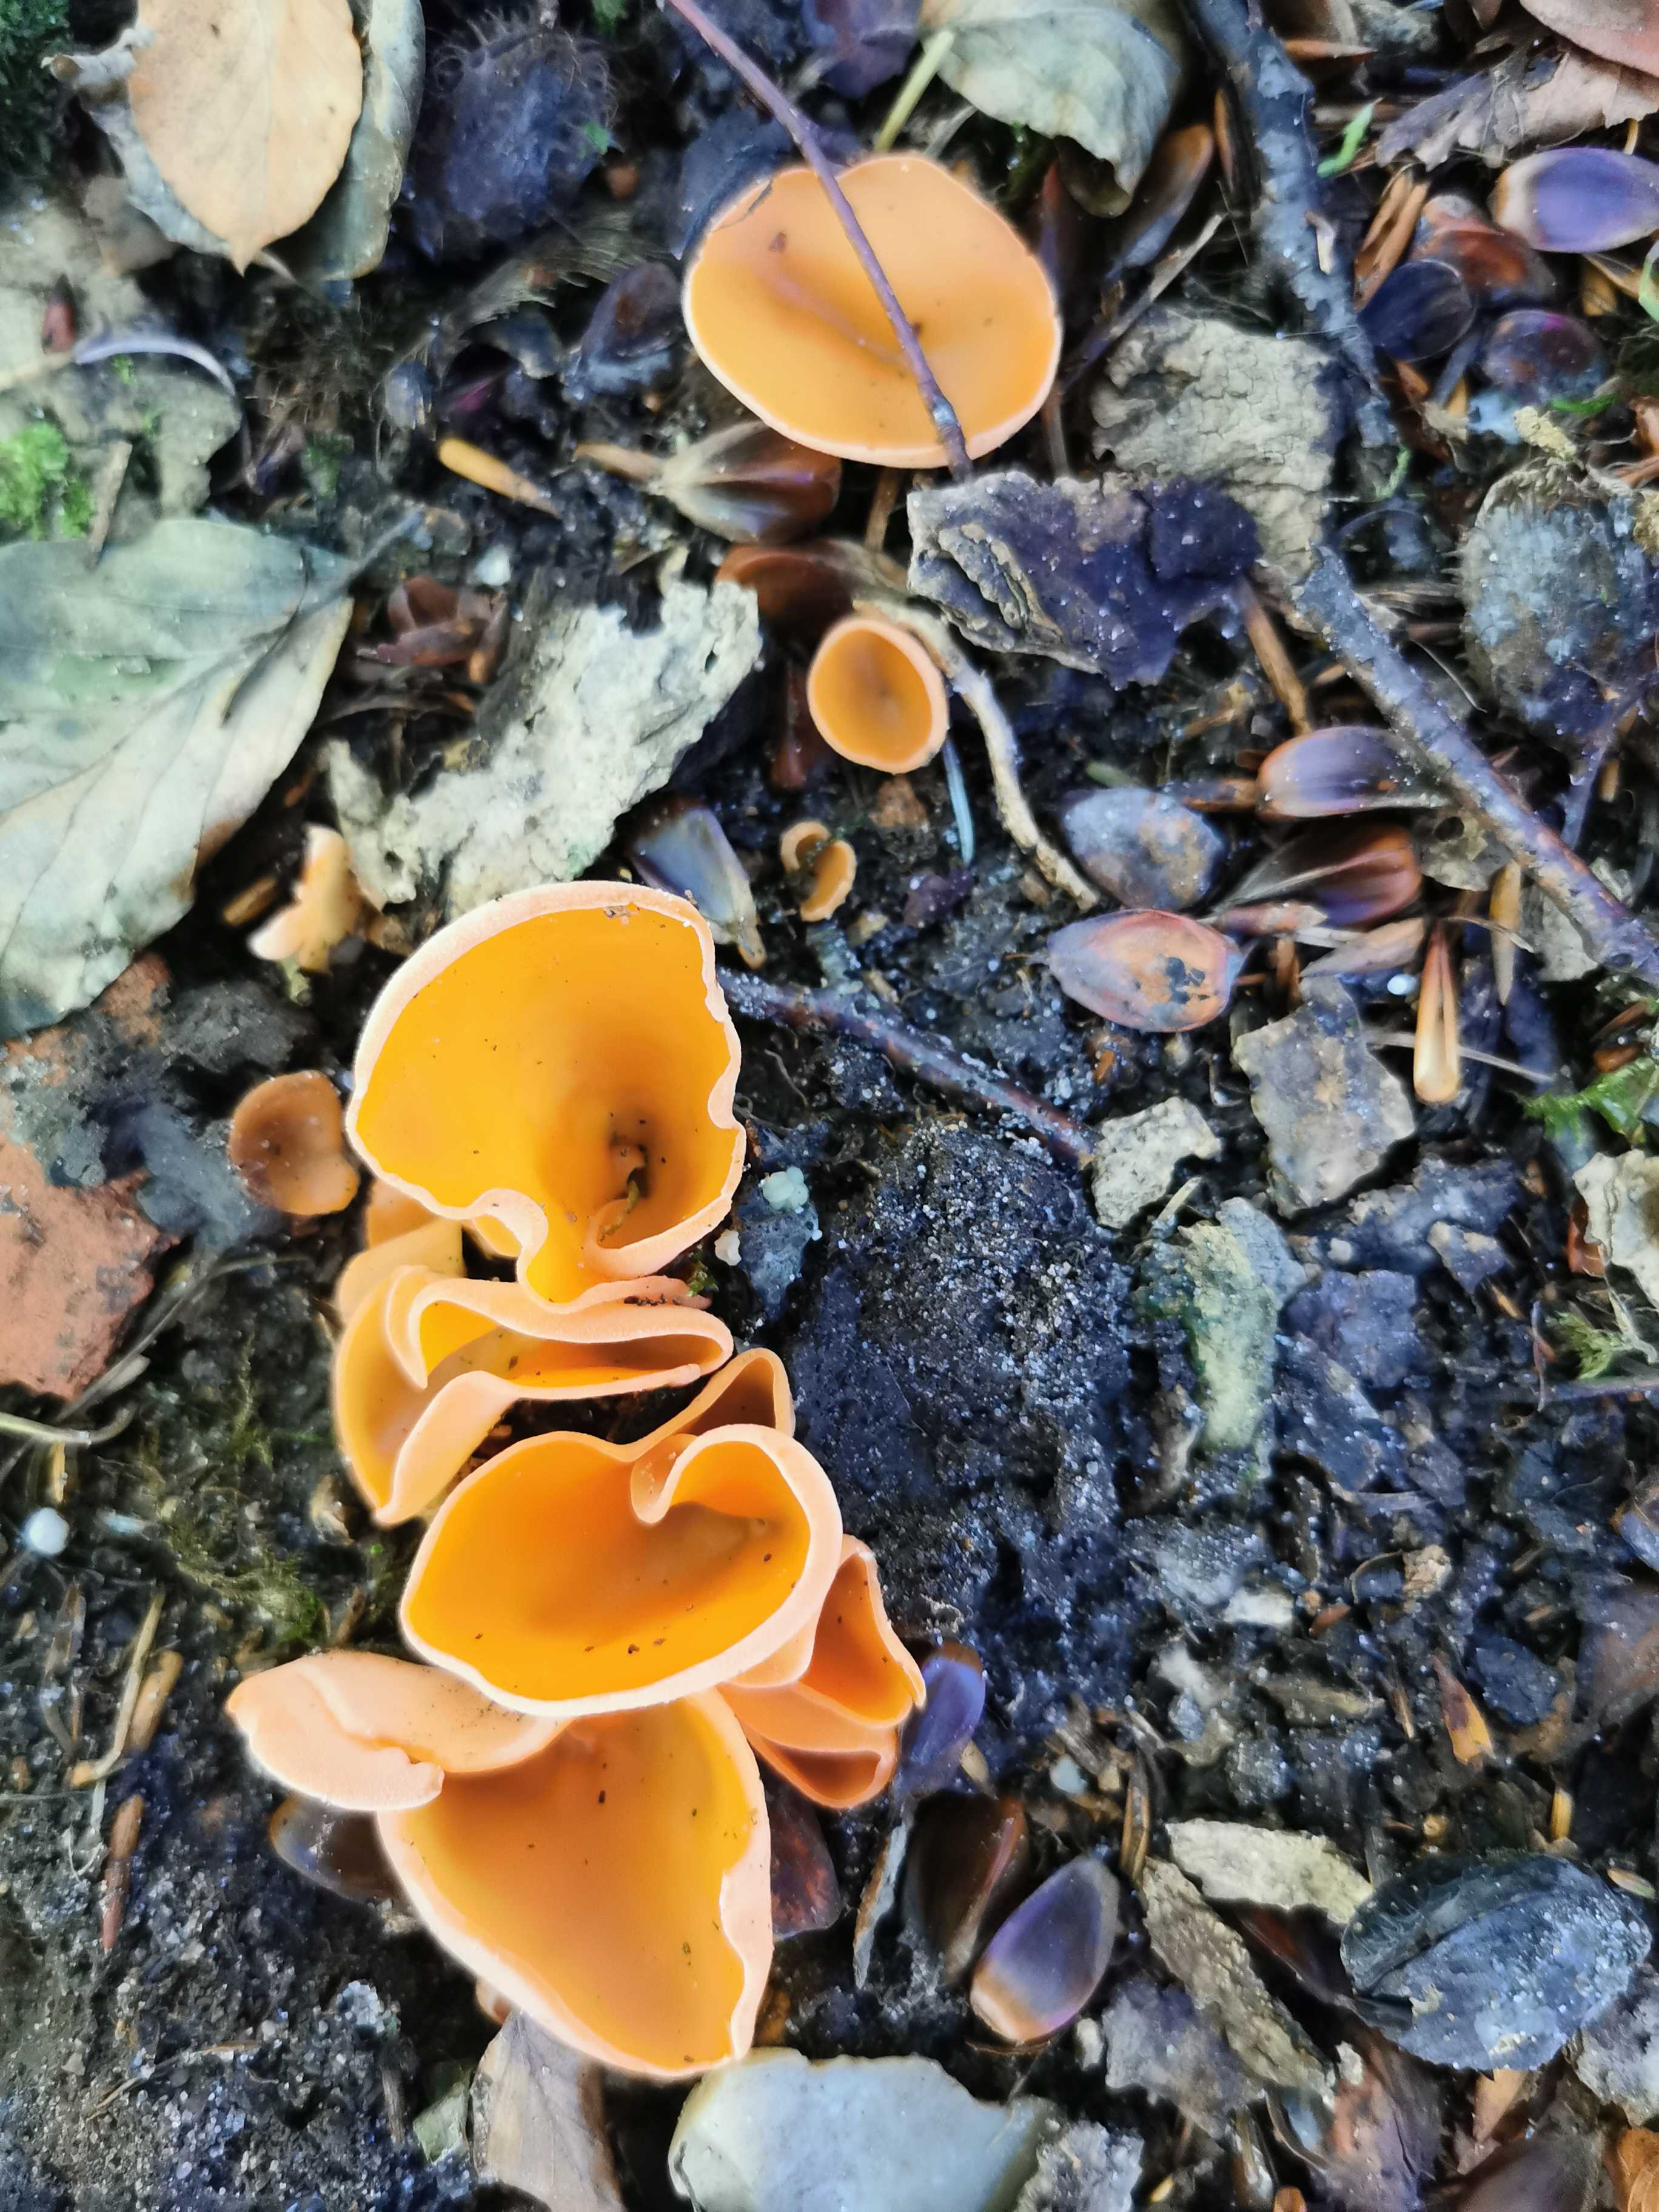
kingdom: Fungi
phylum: Ascomycota
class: Pezizomycetes
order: Pezizales
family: Pyronemataceae
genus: Aleuria
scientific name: Aleuria aurantia
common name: almindelig orangebæger
